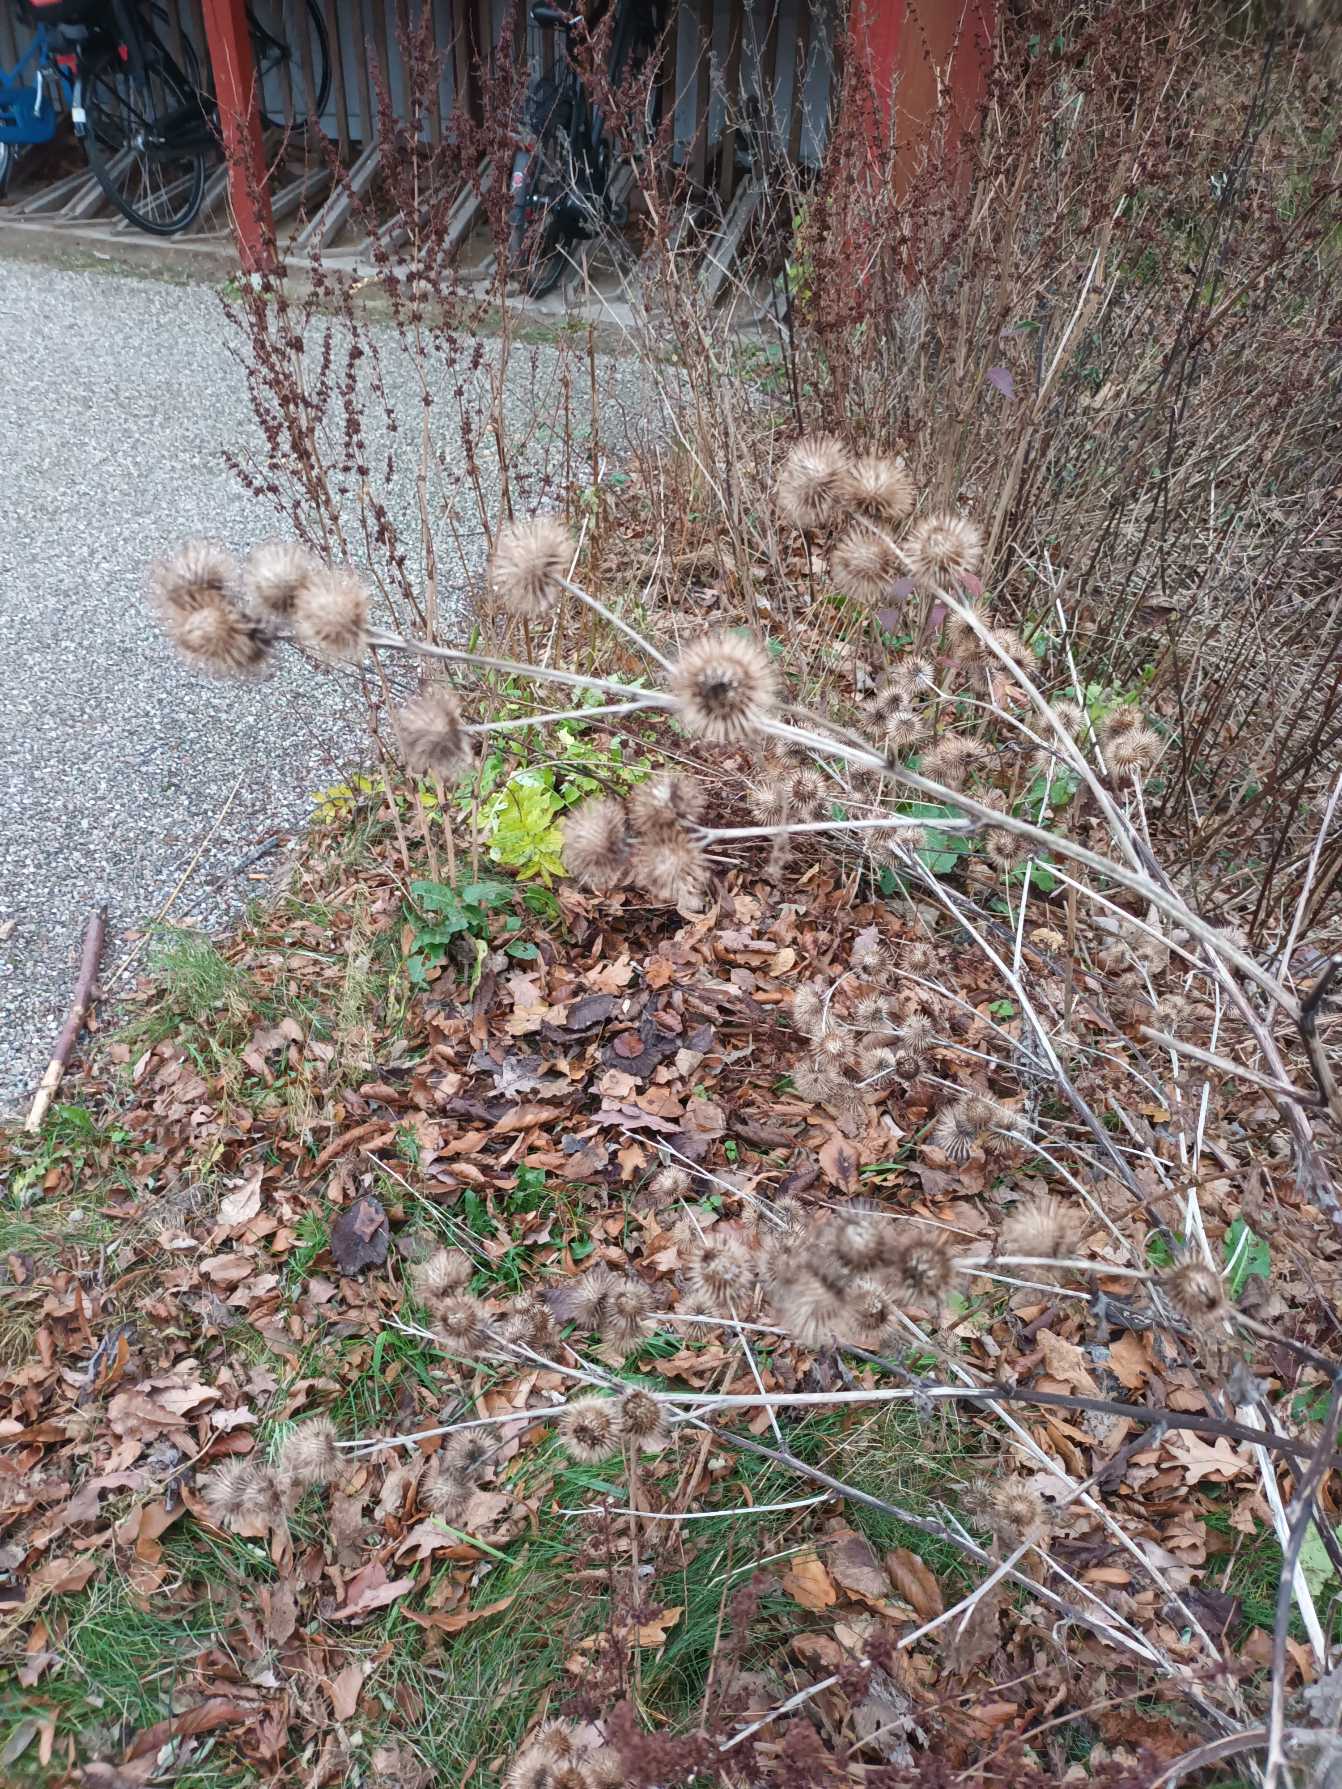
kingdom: Plantae
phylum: Tracheophyta
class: Magnoliopsida
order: Asterales
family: Asteraceae
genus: Arctium
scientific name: Arctium nemorosum
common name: Skov-burre
